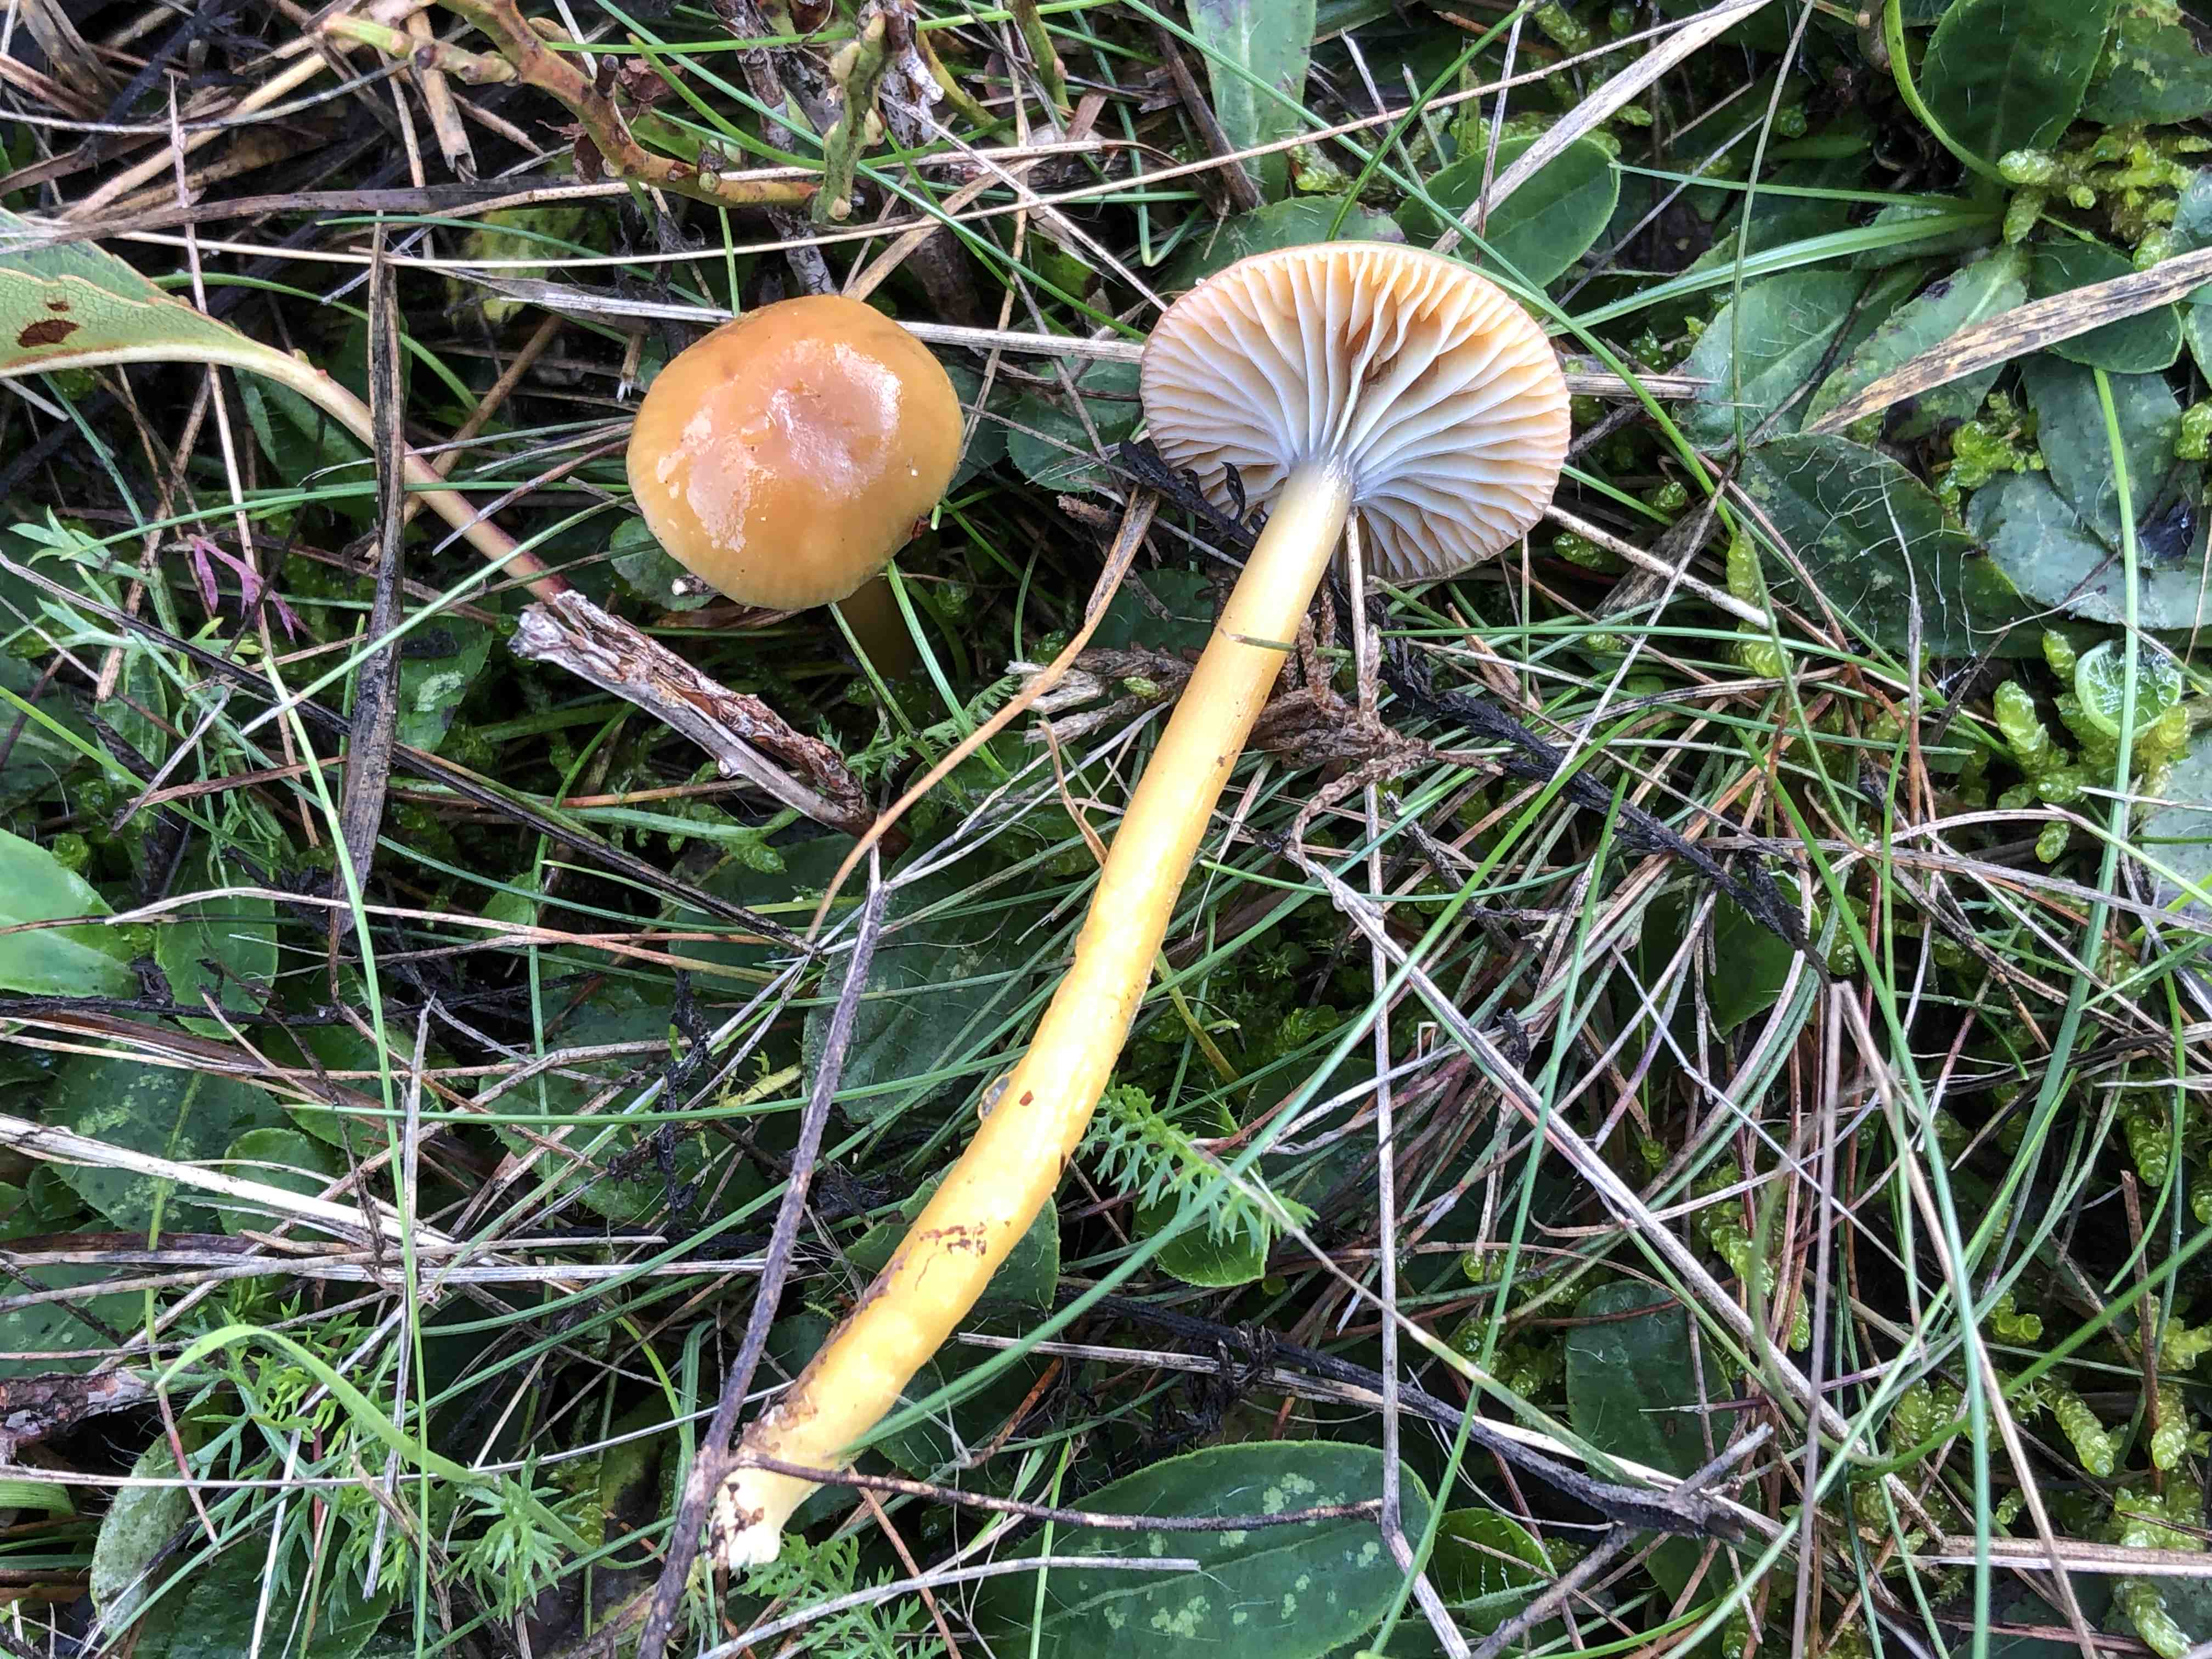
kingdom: Fungi
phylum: Basidiomycota
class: Agaricomycetes
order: Agaricales
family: Hygrophoraceae
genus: Gliophorus
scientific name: Gliophorus laetus
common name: brusk-vokshat
